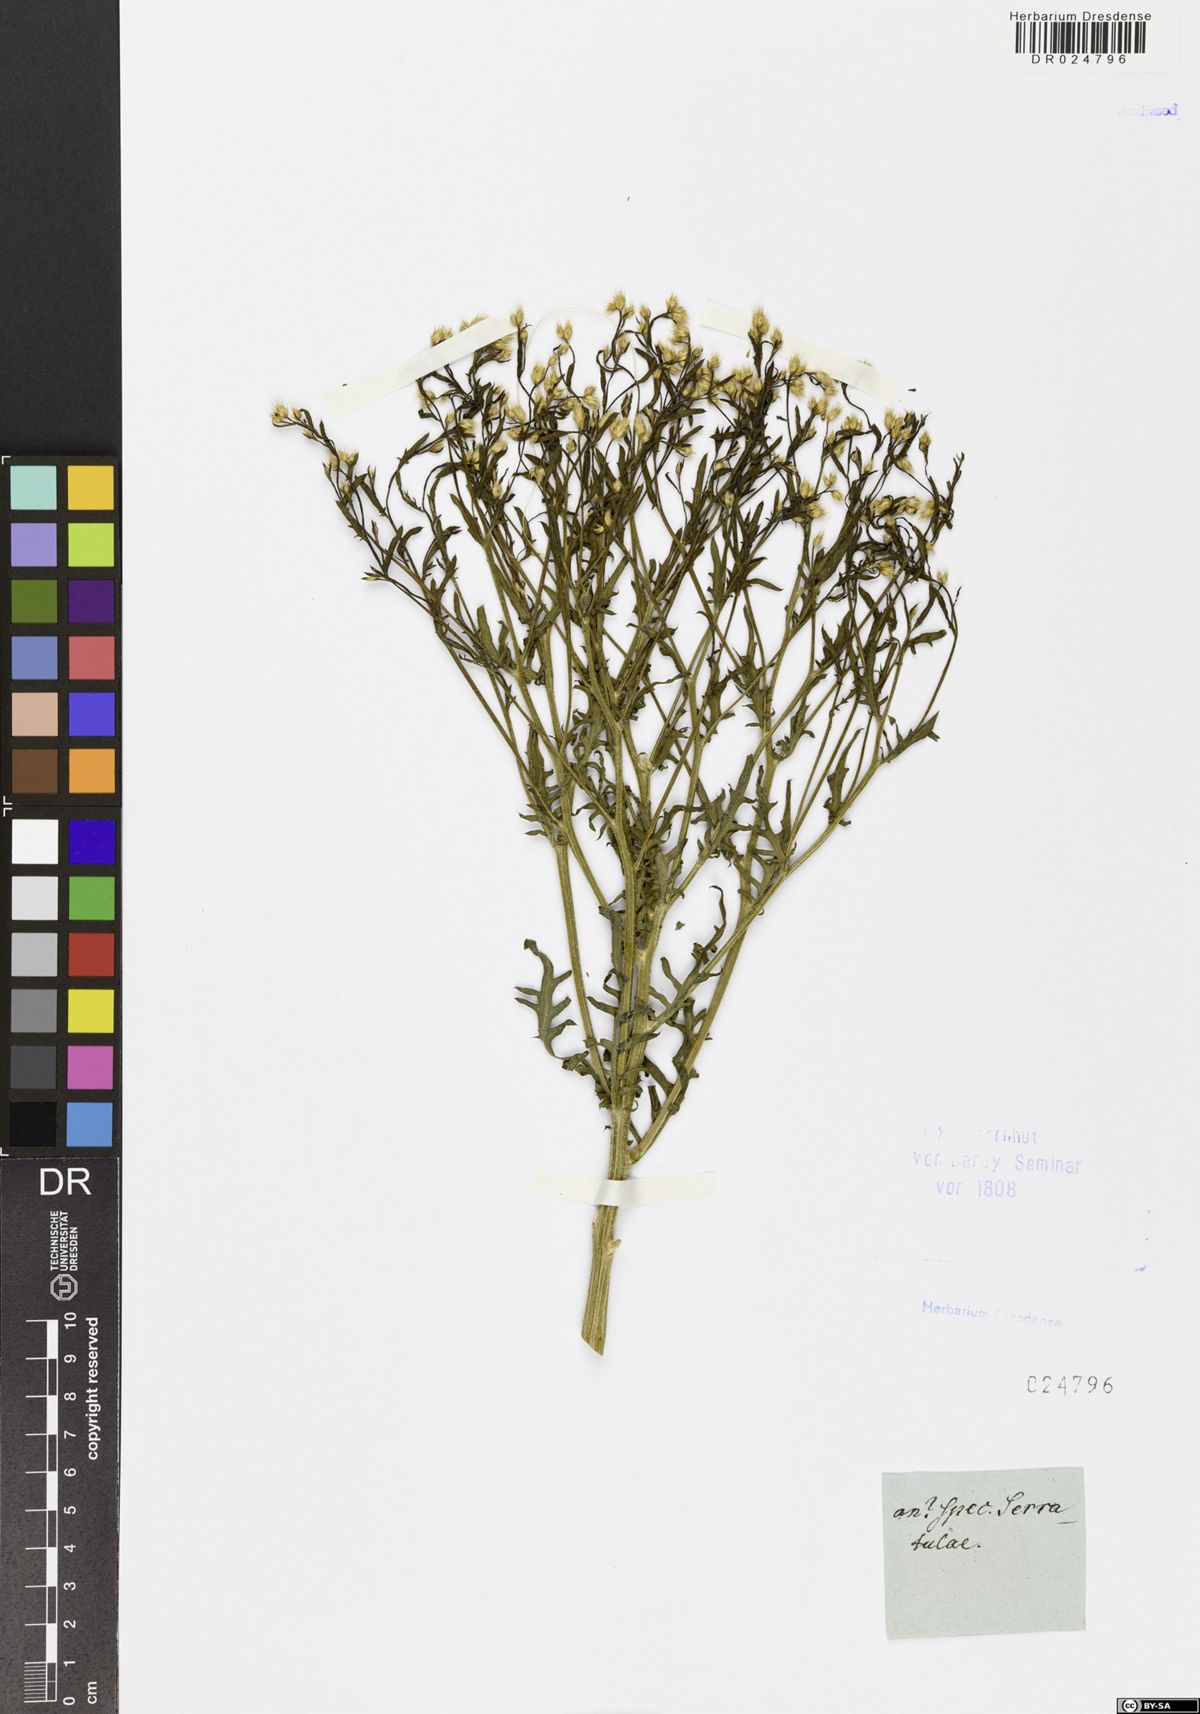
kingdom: Plantae
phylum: Tracheophyta
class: Magnoliopsida
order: Asterales
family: Asteraceae
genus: Serratula
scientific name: Serratula
